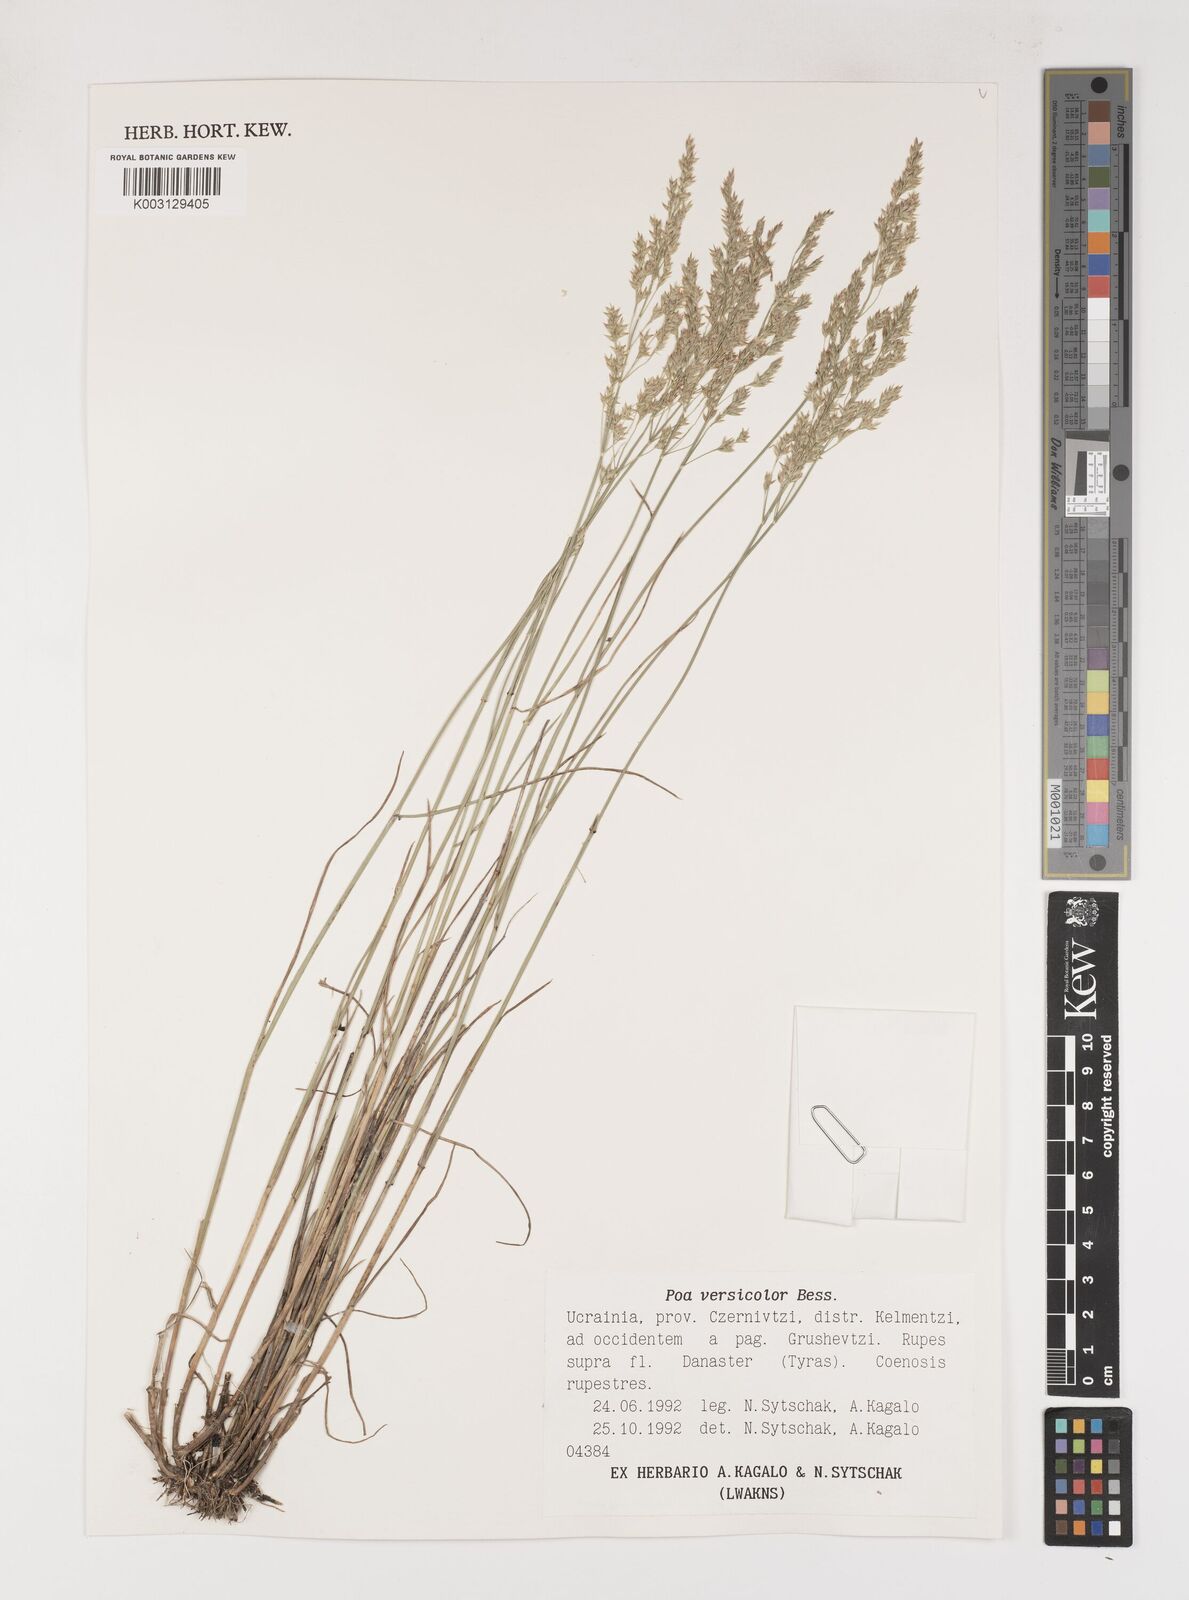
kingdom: Plantae
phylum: Tracheophyta
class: Liliopsida
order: Poales
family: Poaceae
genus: Poa
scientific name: Poa versicolor
